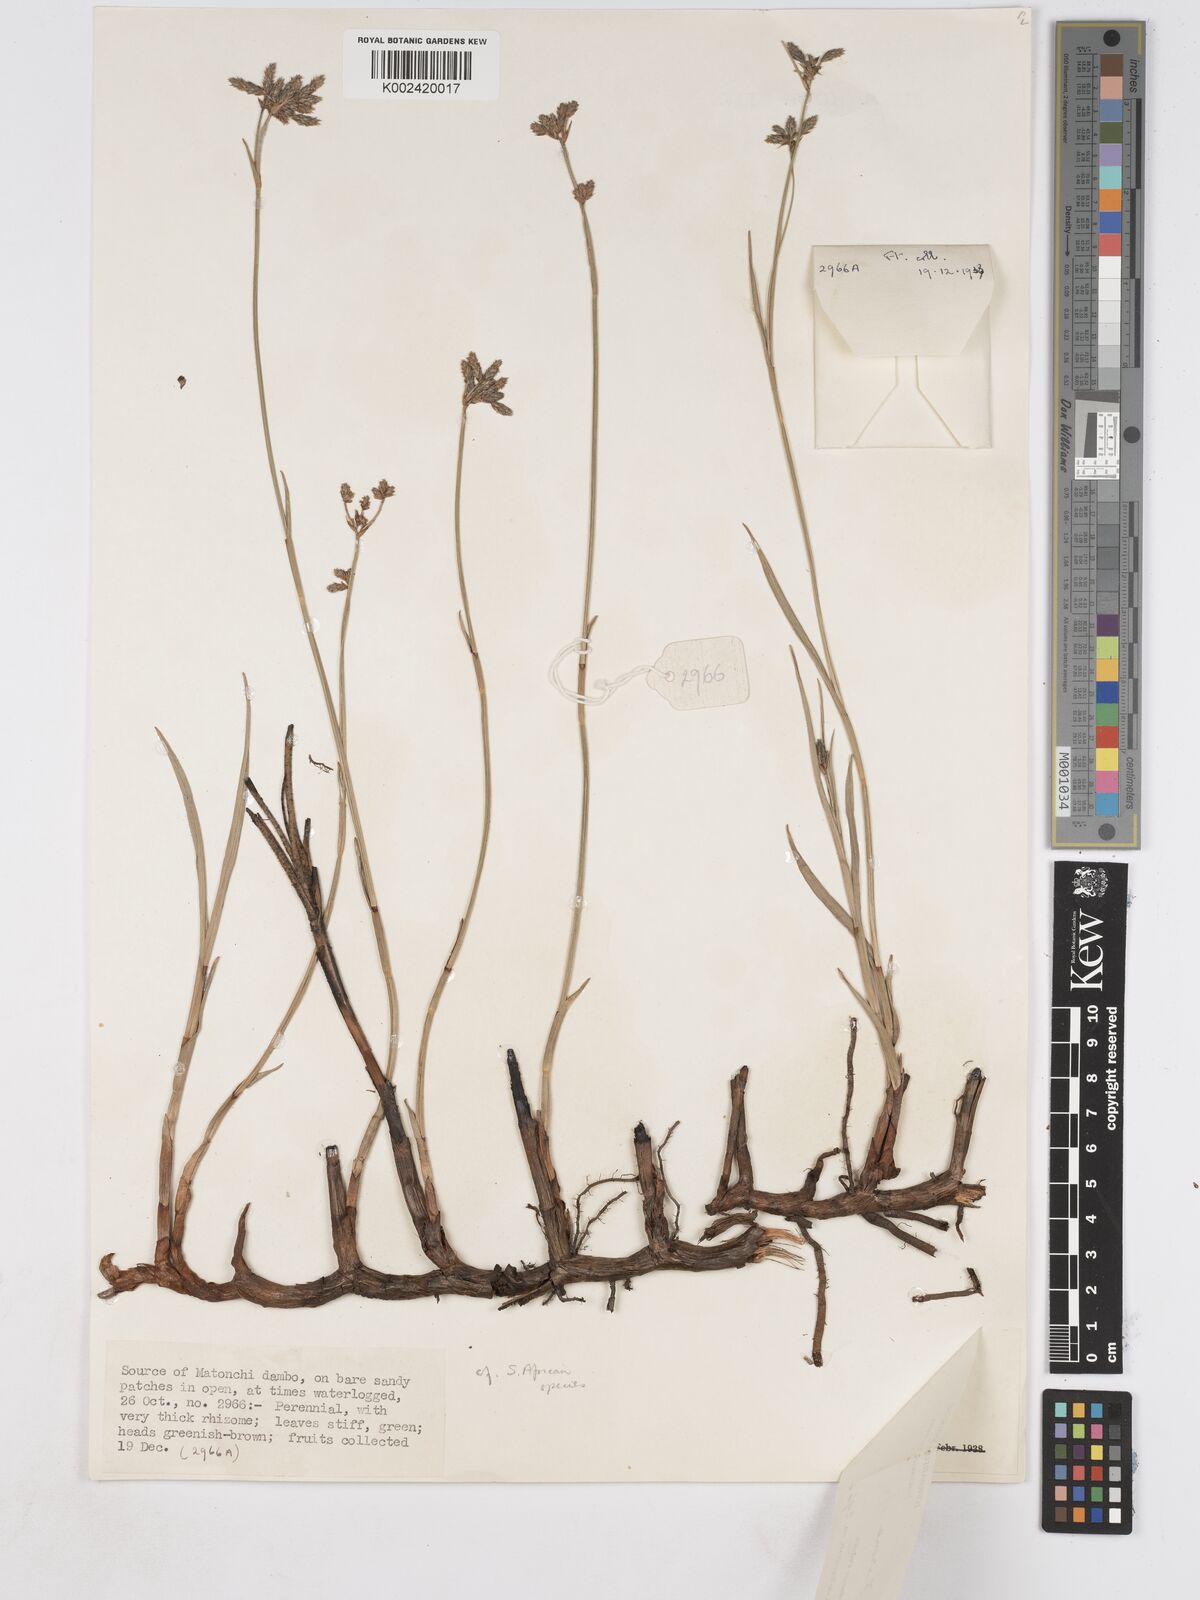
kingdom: Plantae
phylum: Tracheophyta
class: Liliopsida
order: Poales
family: Cyperaceae
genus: Fuirena
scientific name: Fuirena ecklonii
